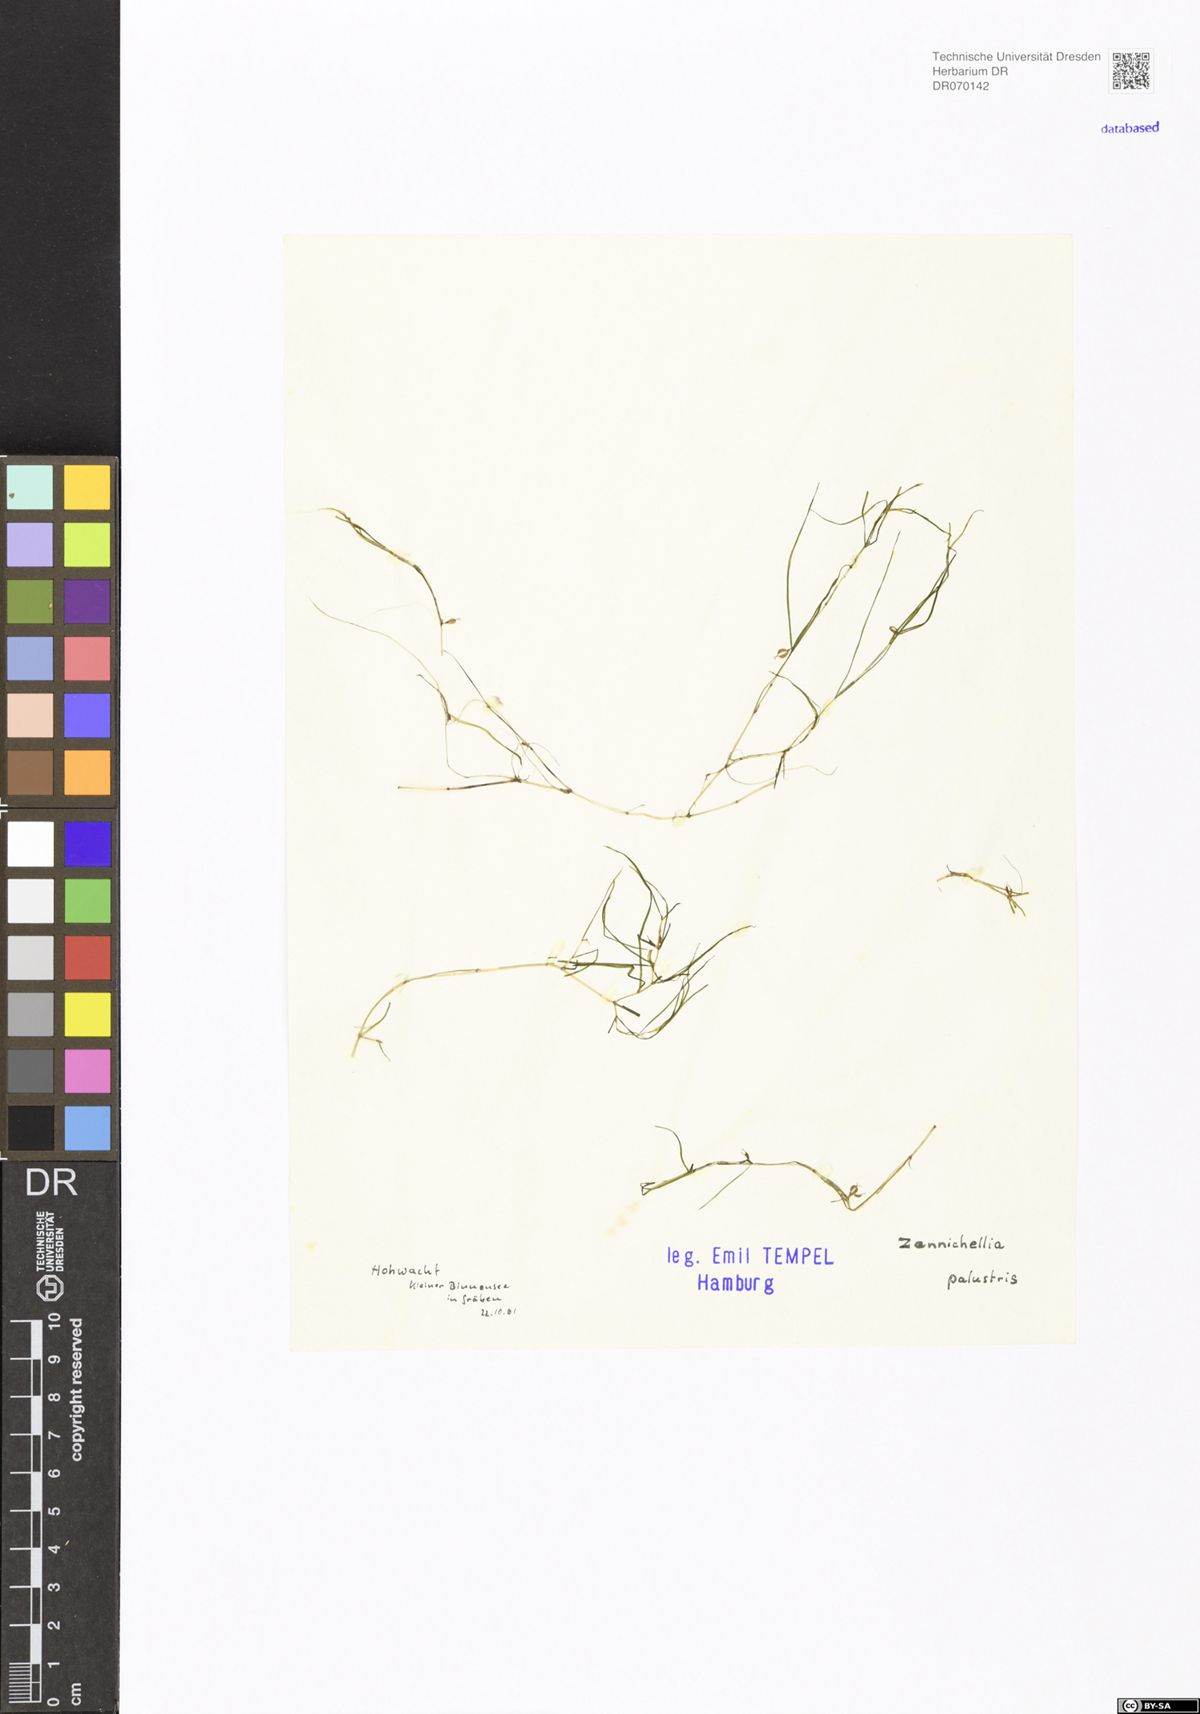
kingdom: Plantae
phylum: Tracheophyta
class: Liliopsida
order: Alismatales
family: Potamogetonaceae
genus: Zannichellia
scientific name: Zannichellia palustris
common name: Horned pondweed
